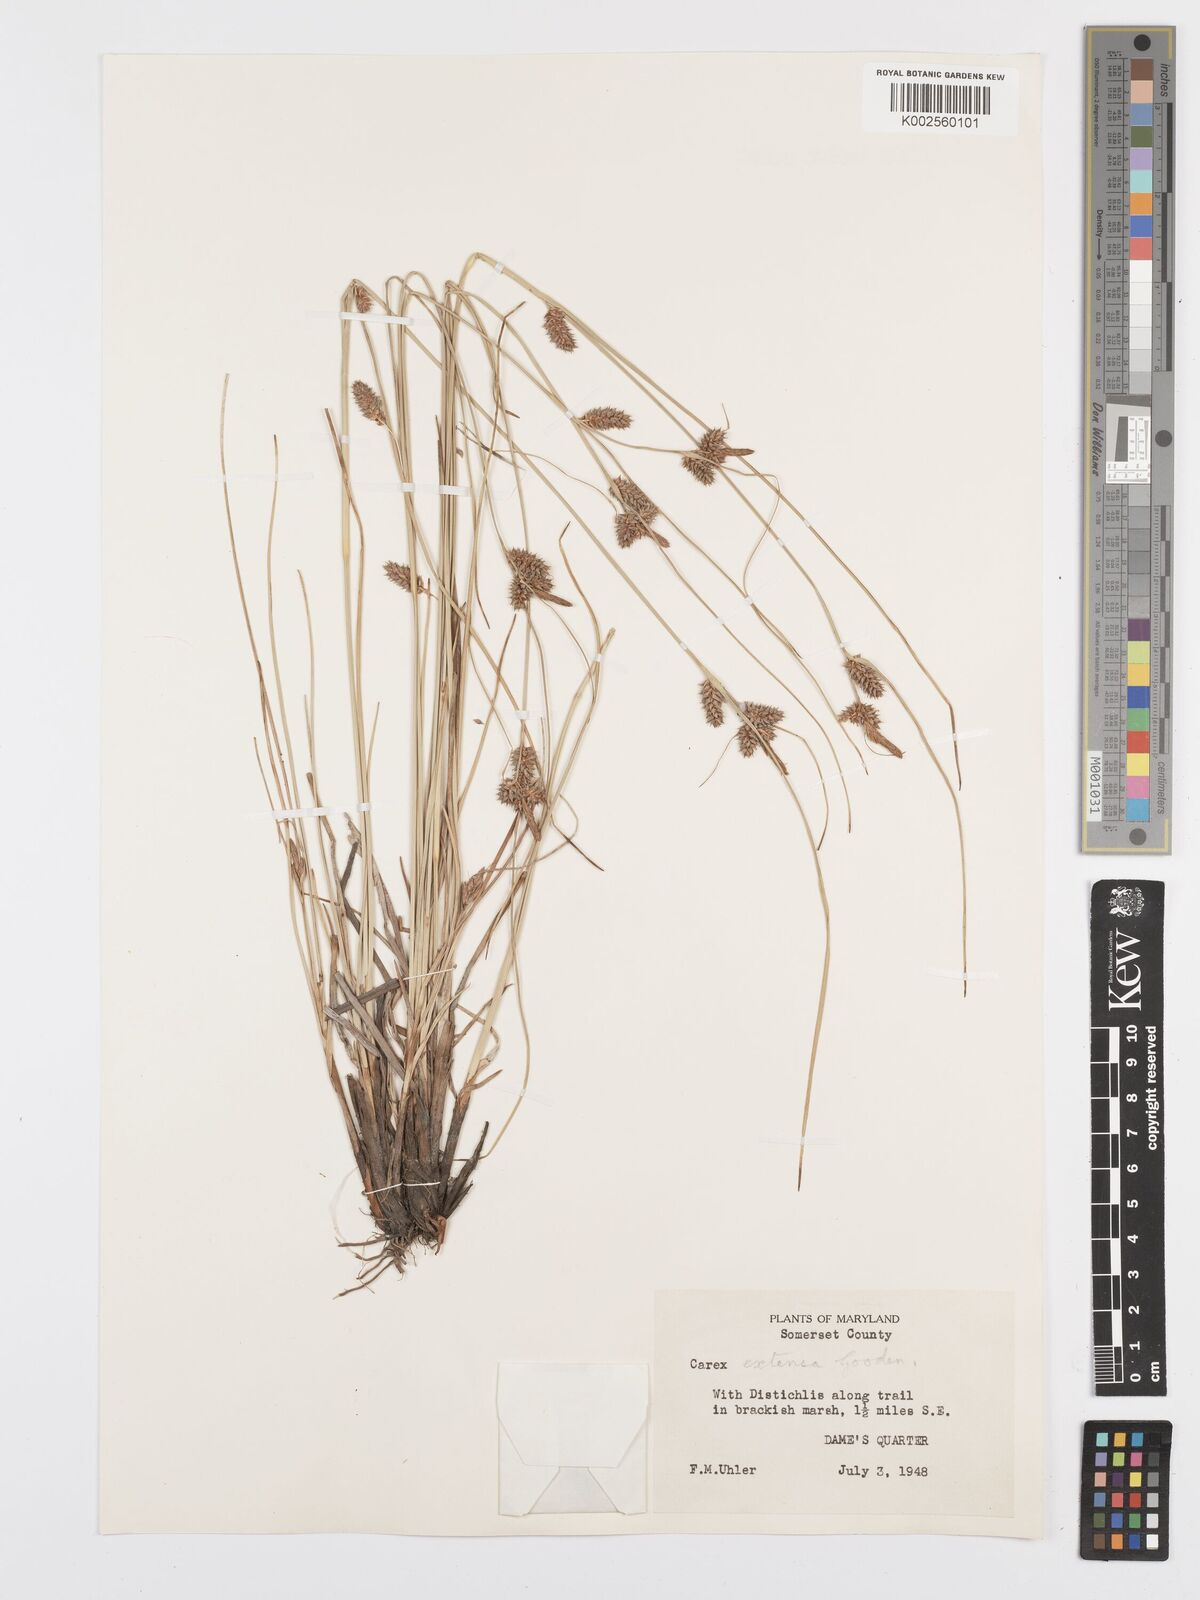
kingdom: Plantae
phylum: Tracheophyta
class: Liliopsida
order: Poales
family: Cyperaceae
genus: Carex
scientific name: Carex diluta
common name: Sedge
